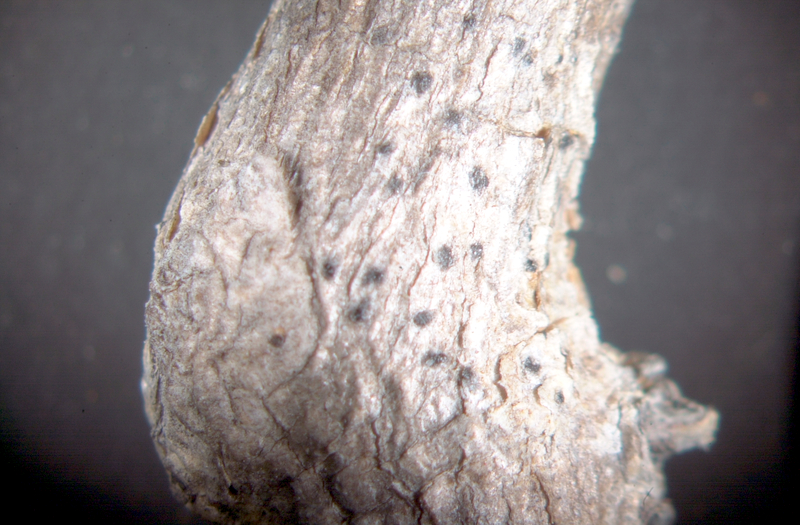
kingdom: Fungi
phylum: Ascomycota
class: Arthoniomycetes
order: Arthoniales
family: Arthoniaceae
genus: Arthonia
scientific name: Arthonia
